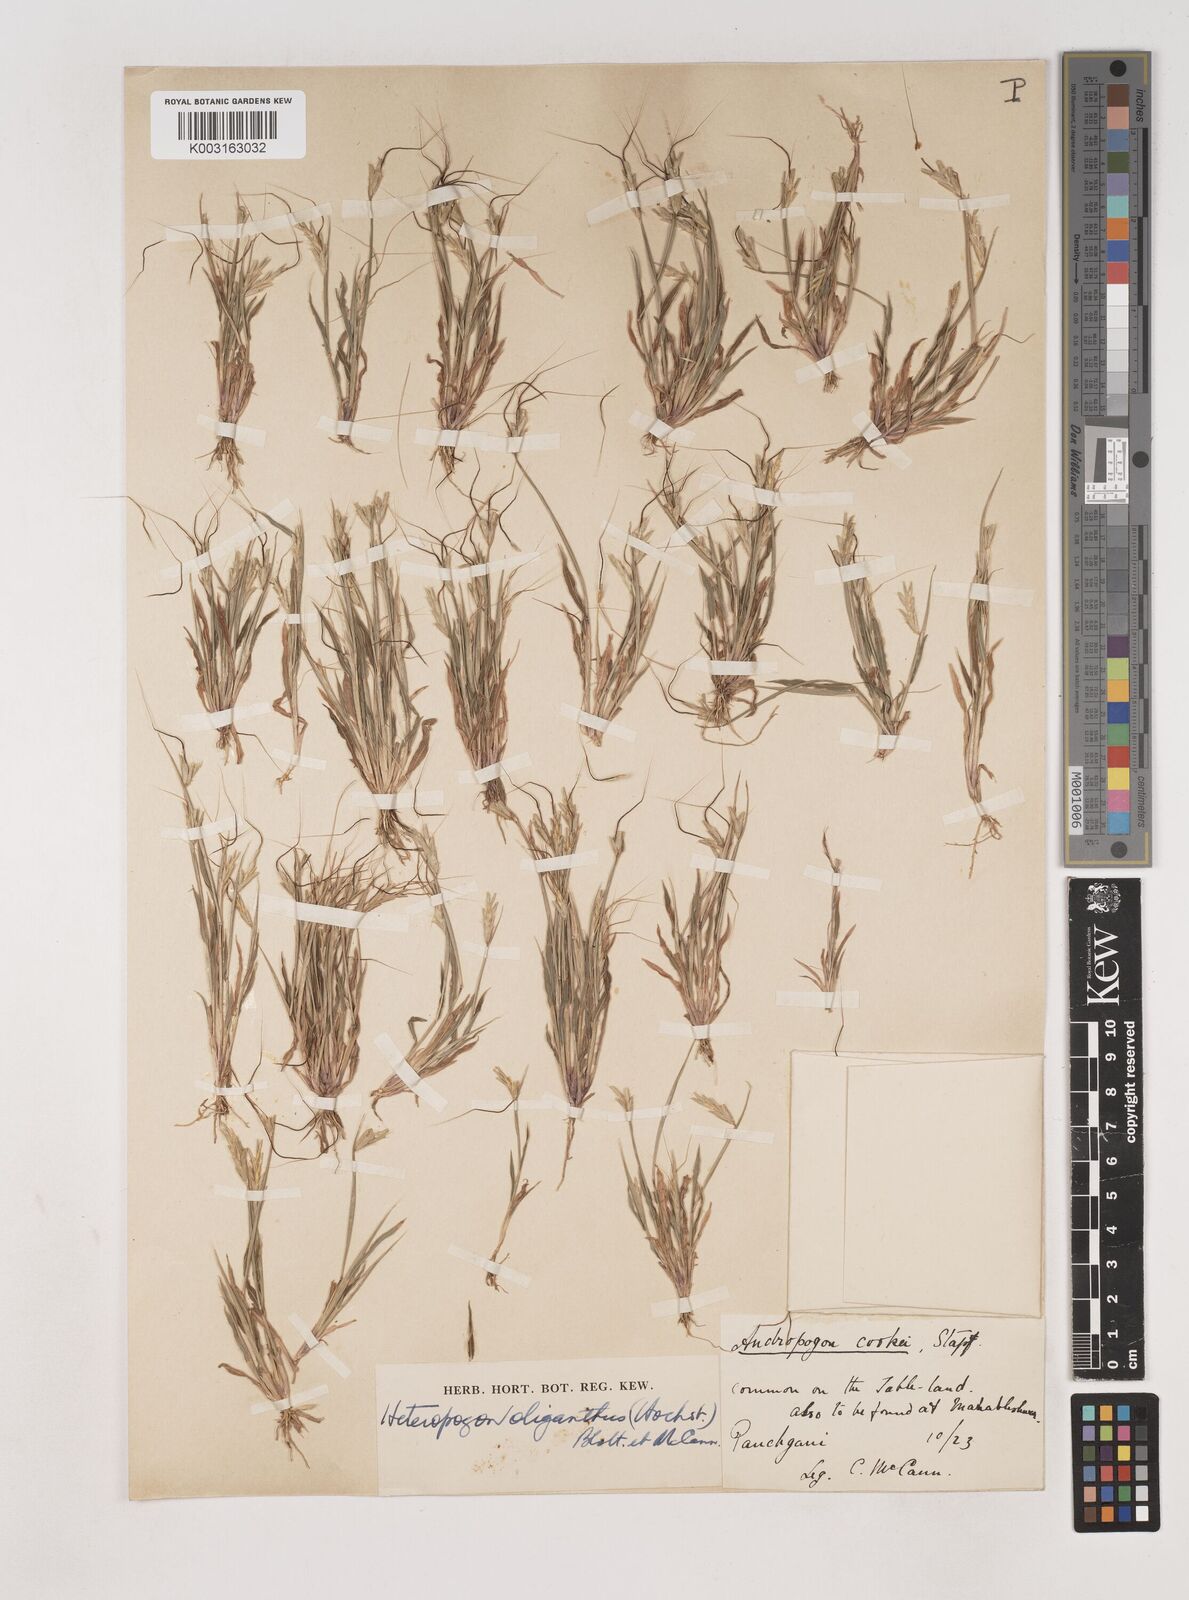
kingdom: Plantae
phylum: Tracheophyta
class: Liliopsida
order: Poales
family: Poaceae
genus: Euclasta
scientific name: Euclasta oligantha
